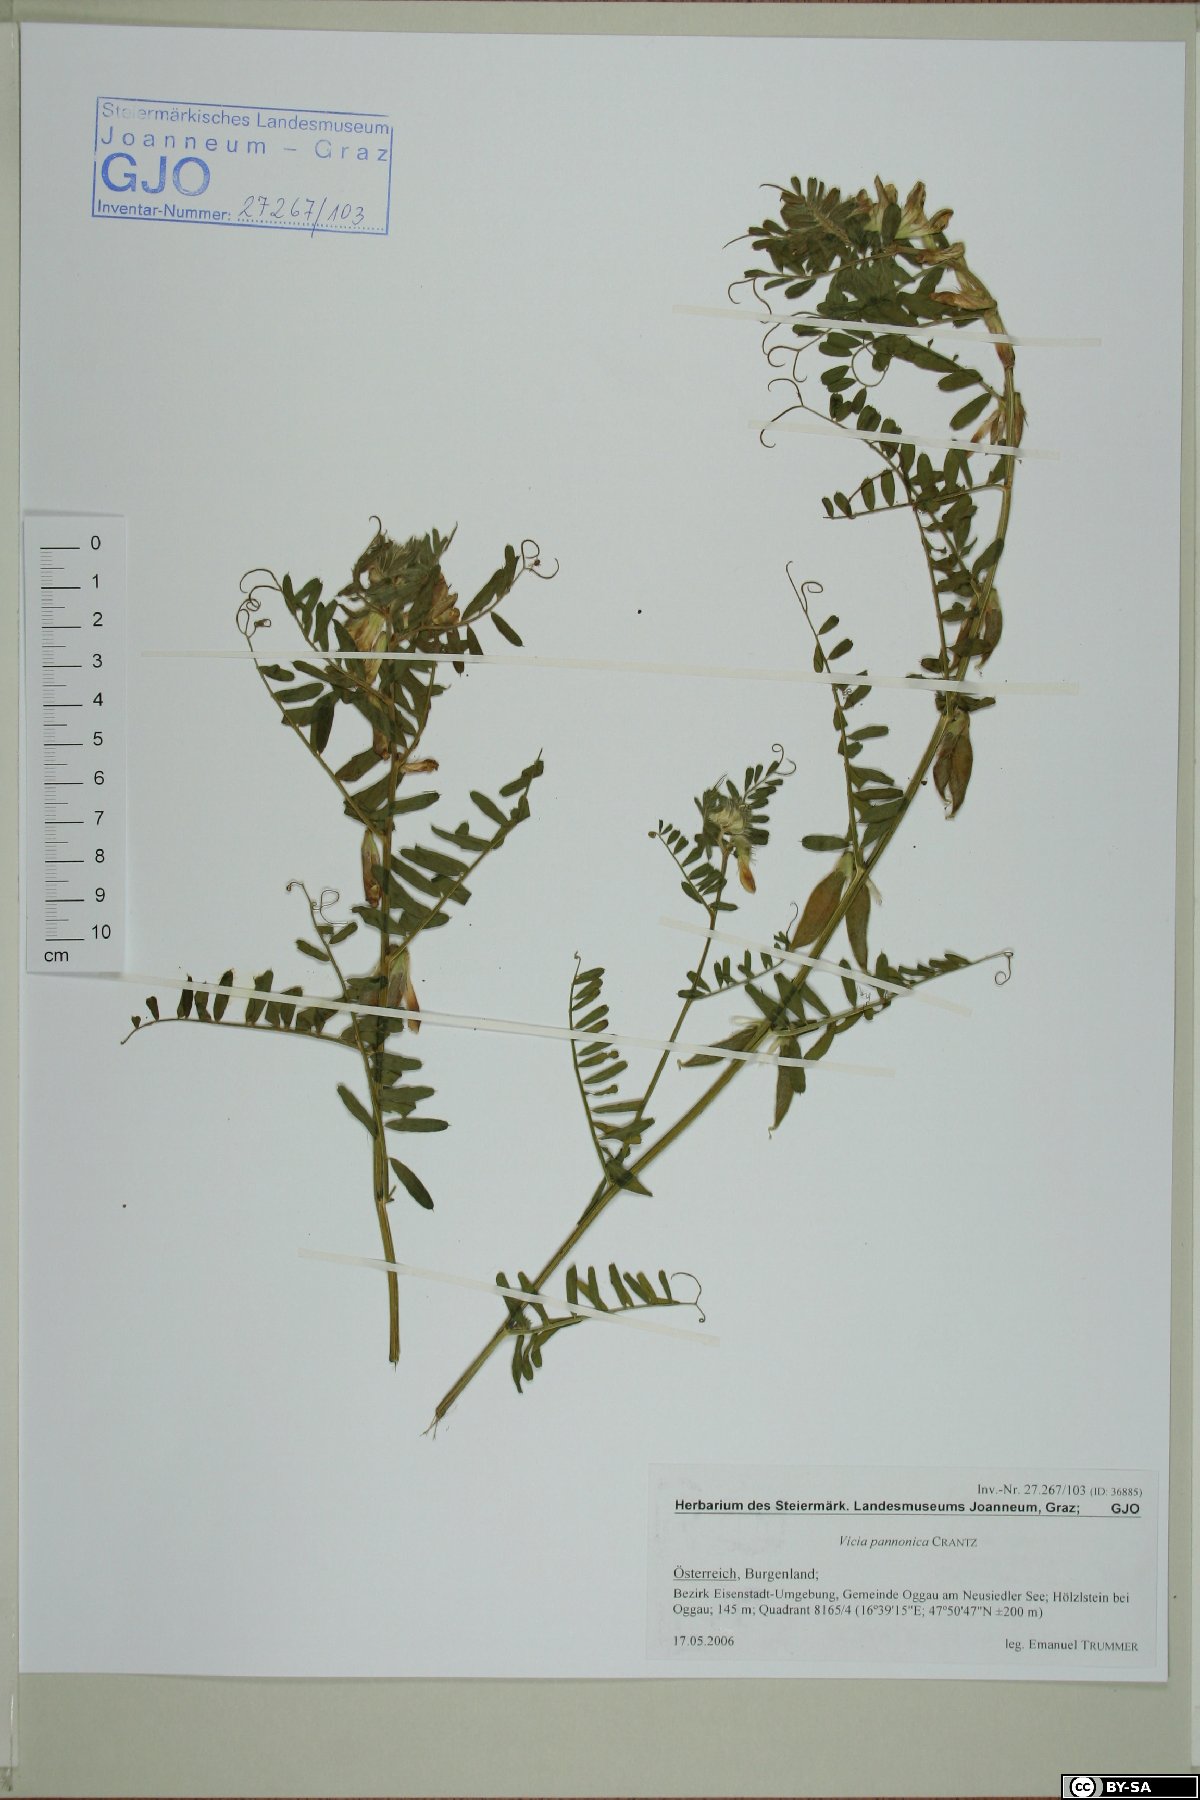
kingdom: Plantae
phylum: Tracheophyta
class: Magnoliopsida
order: Fabales
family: Fabaceae
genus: Vicia
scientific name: Vicia pannonica
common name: Hungarian vetch
